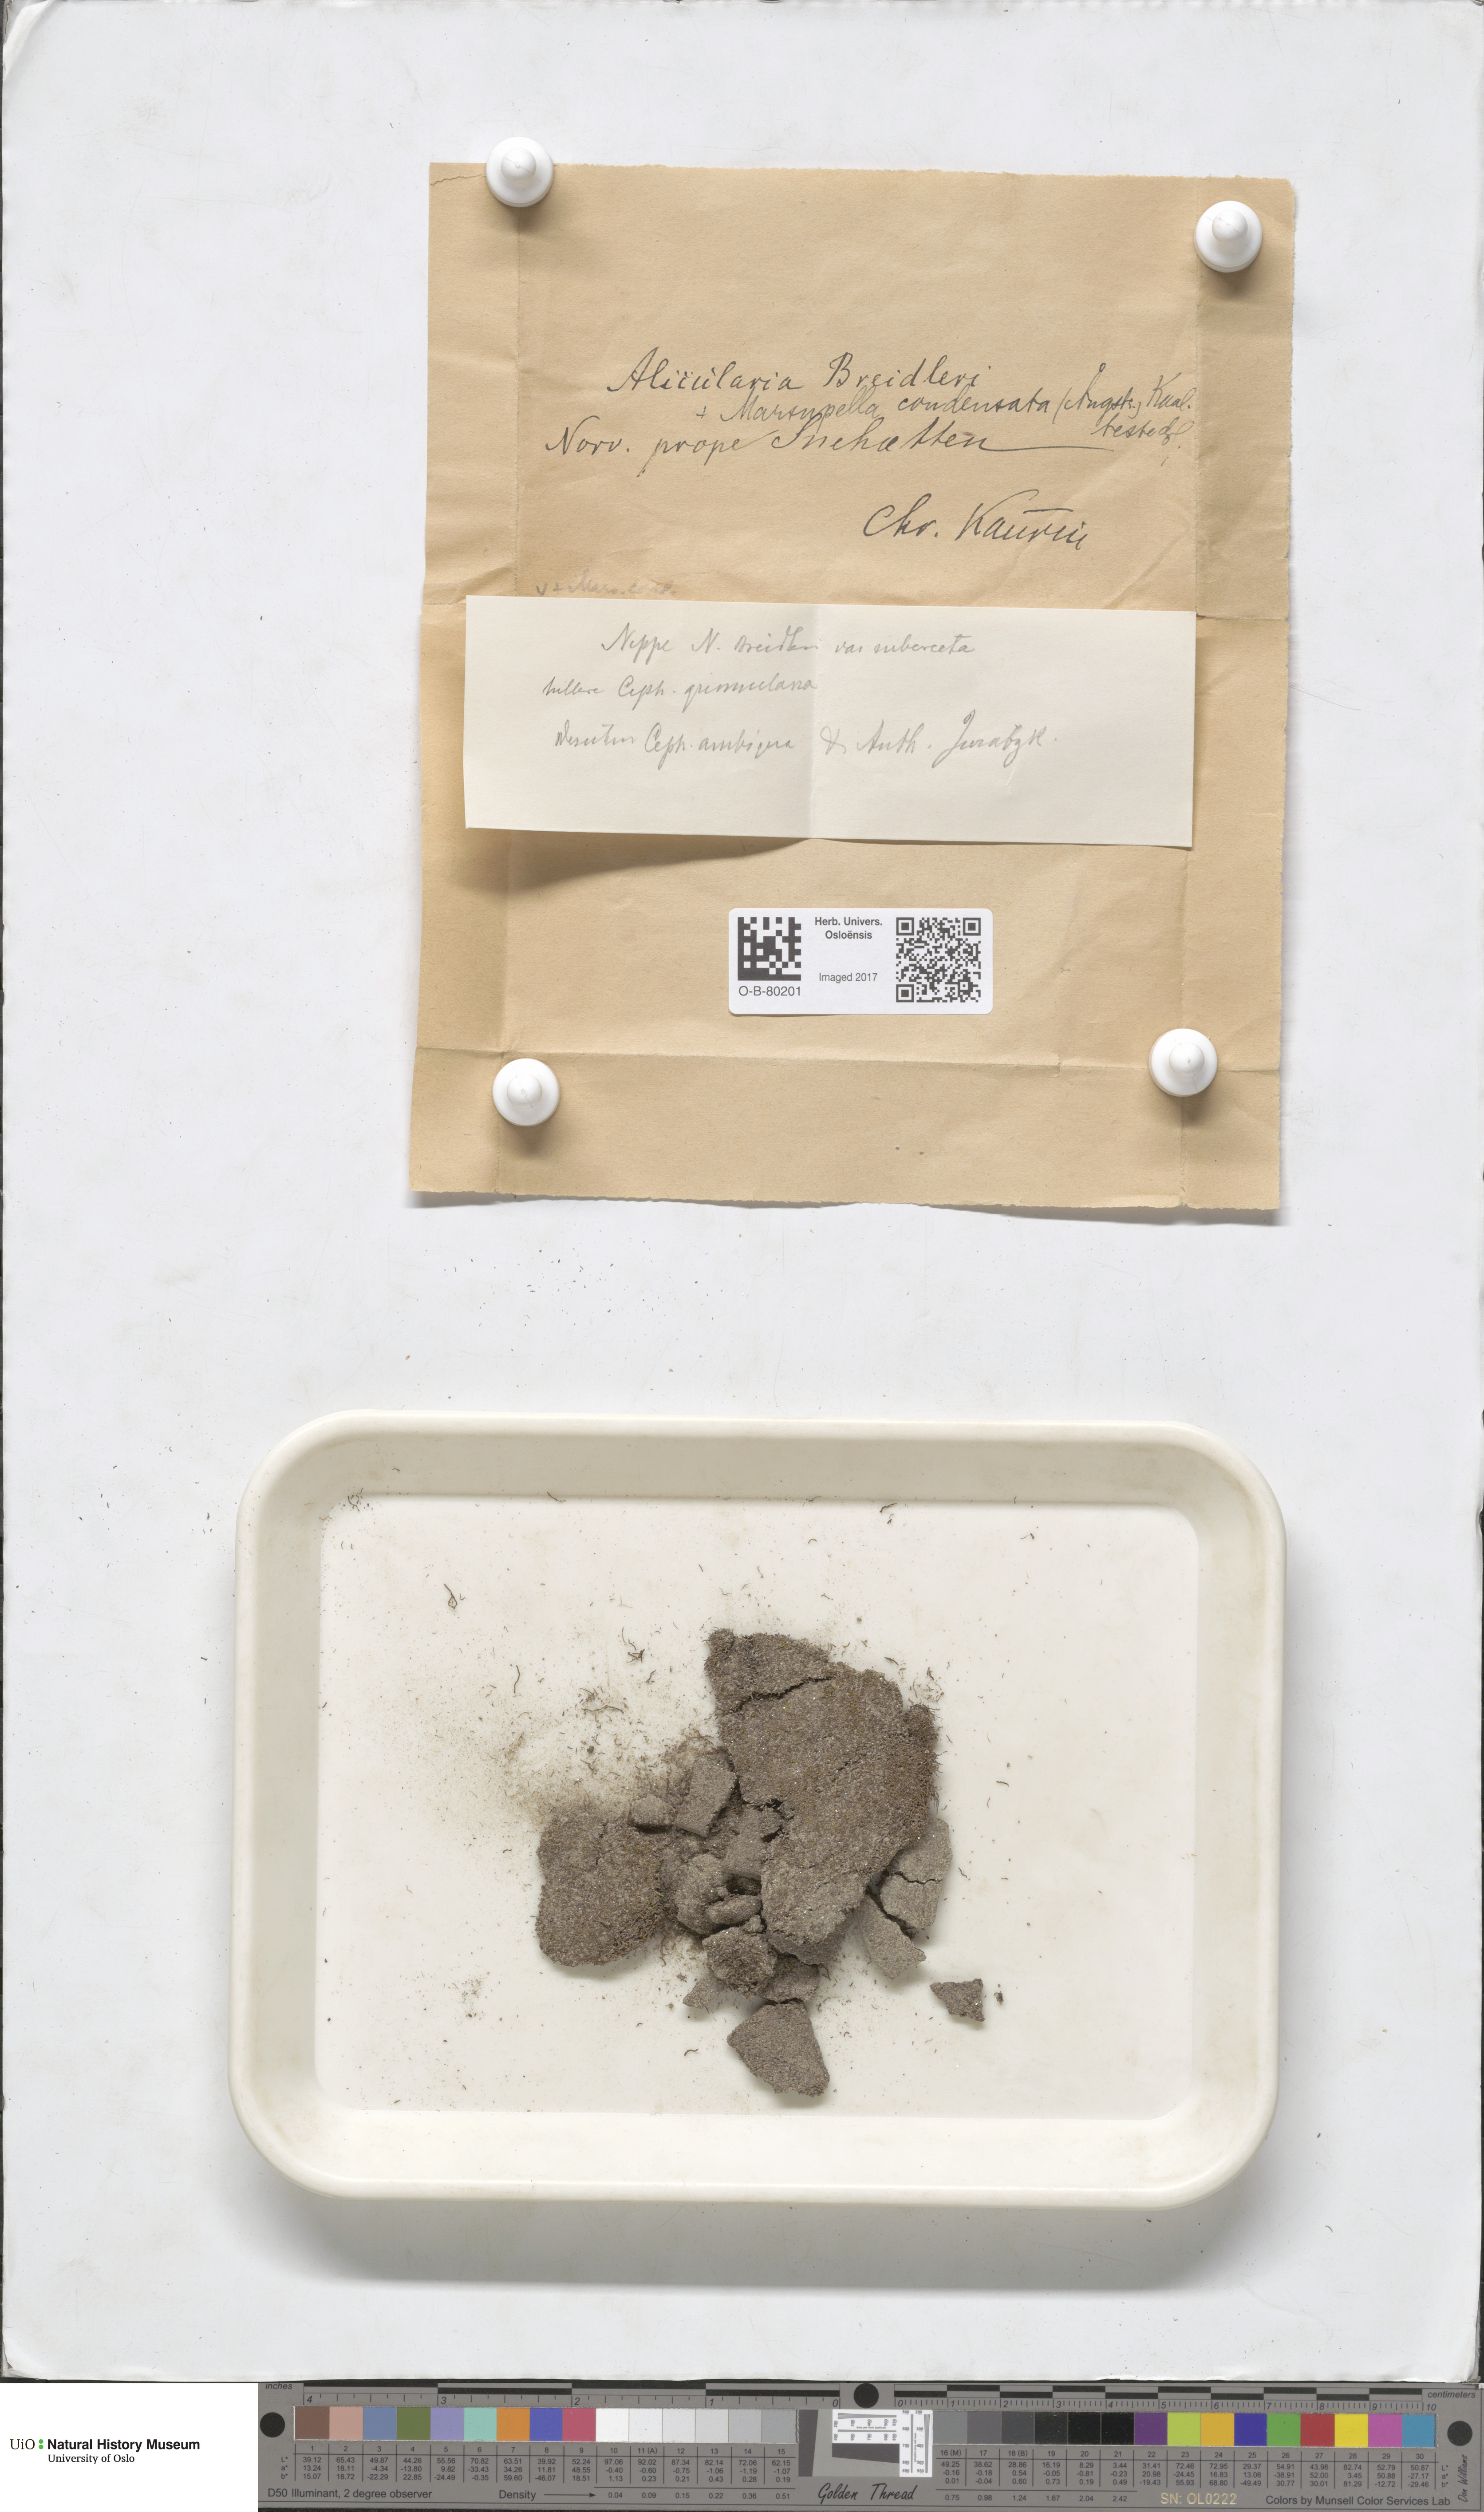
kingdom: Plantae
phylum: Marchantiophyta
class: Jungermanniopsida
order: Jungermanniales
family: Gymnomitriaceae
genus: Nardia
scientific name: Nardia breidleri
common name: Book flapwort
